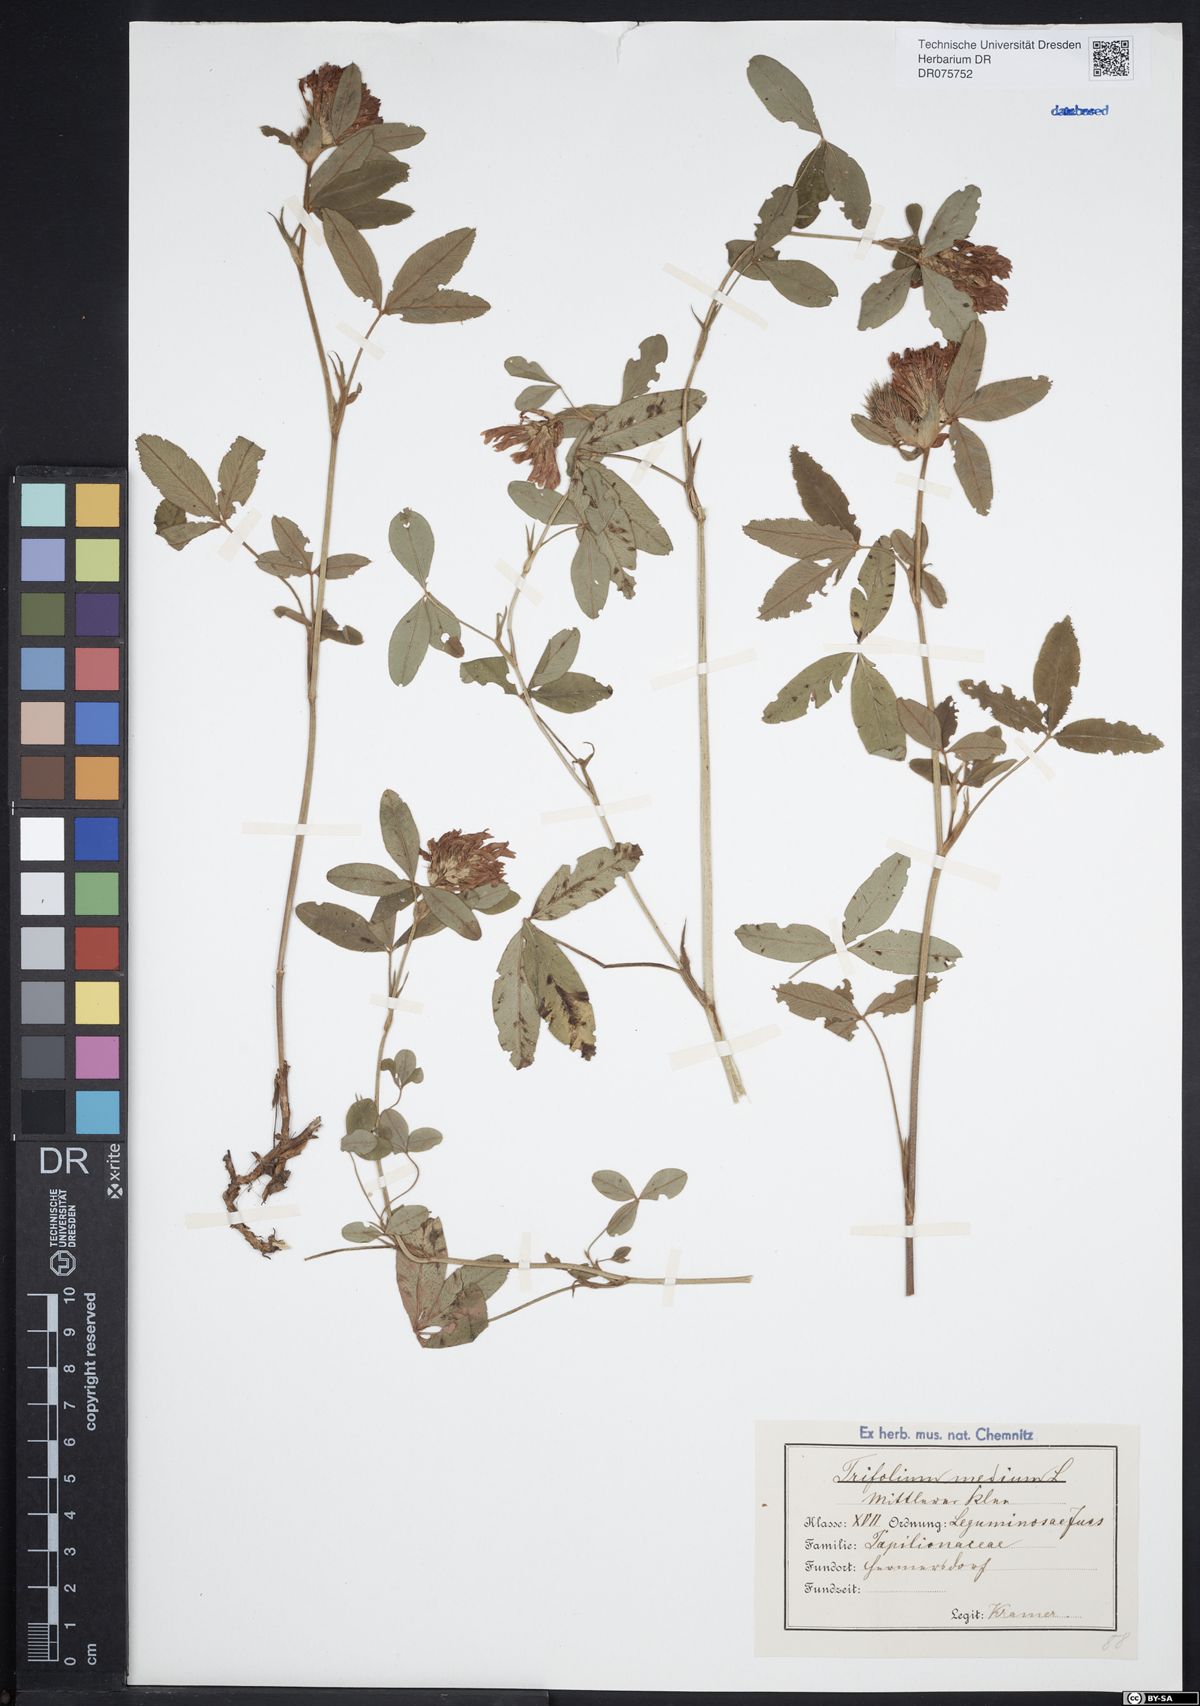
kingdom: Plantae
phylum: Tracheophyta
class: Magnoliopsida
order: Fabales
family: Fabaceae
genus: Trifolium
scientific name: Trifolium medium
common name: Zigzag clover
